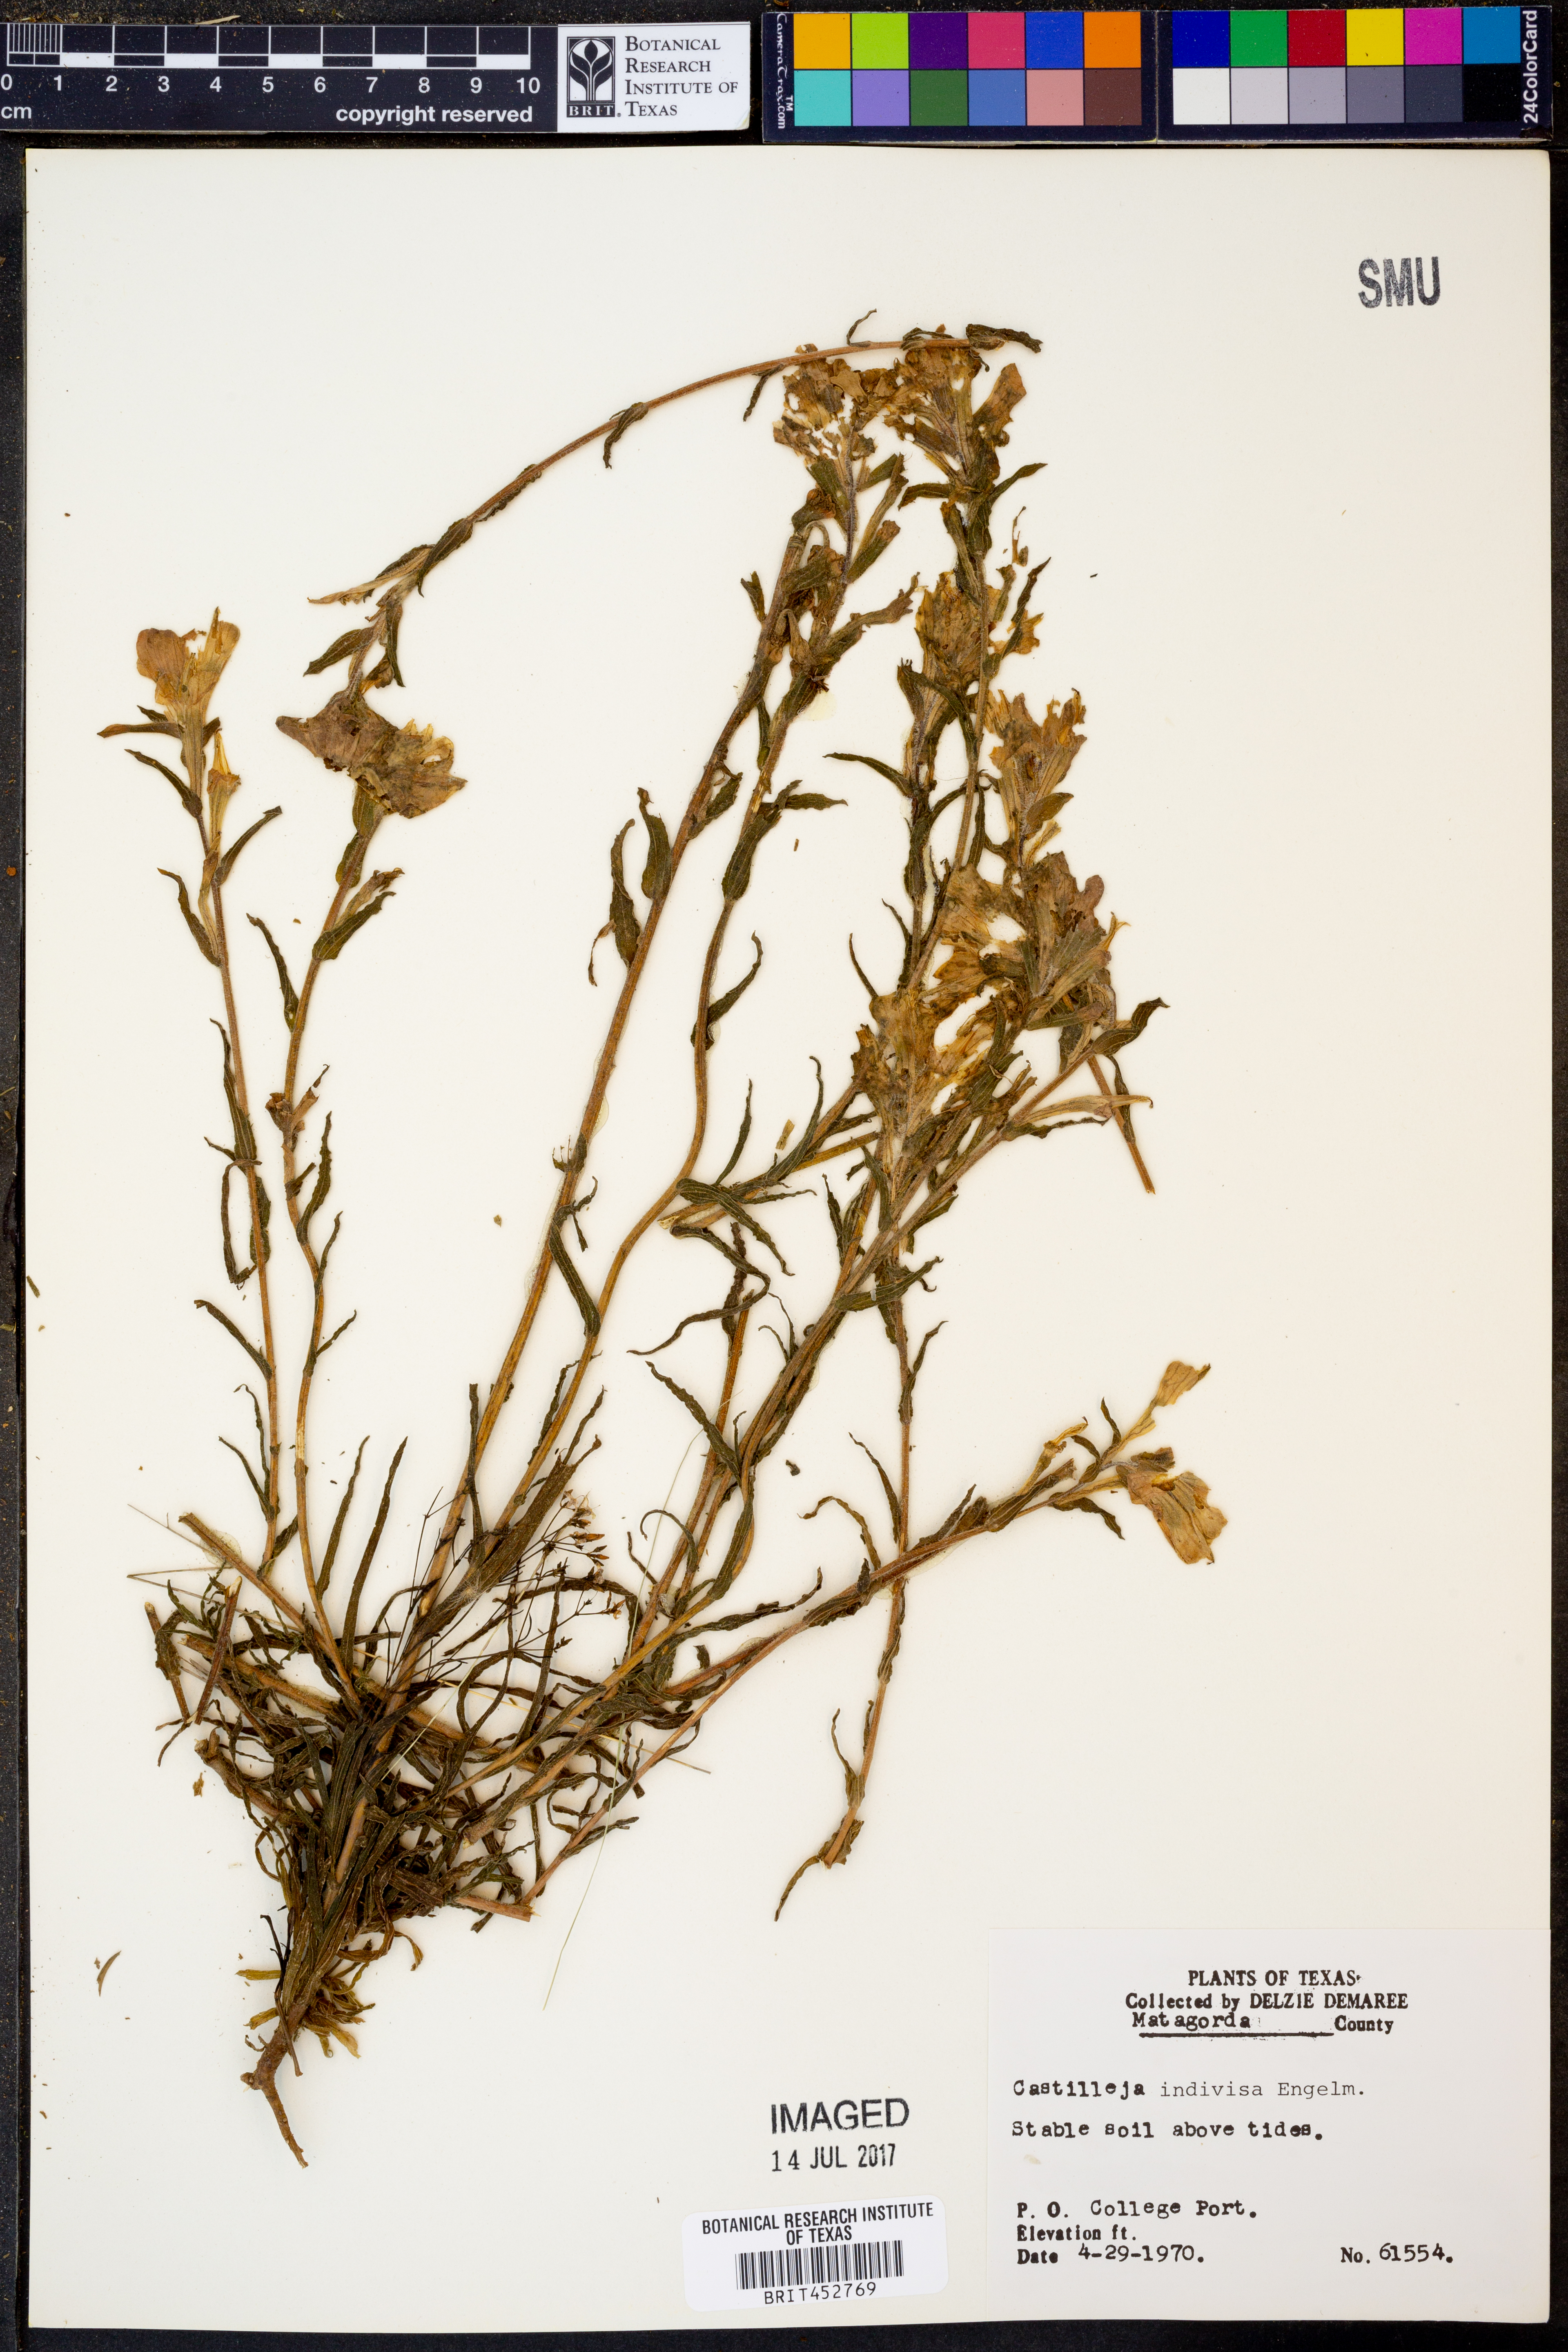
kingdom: Plantae
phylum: Tracheophyta
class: Magnoliopsida
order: Lamiales
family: Orobanchaceae
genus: Castilleja
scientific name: Castilleja indivisa
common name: Texas paintbrush
